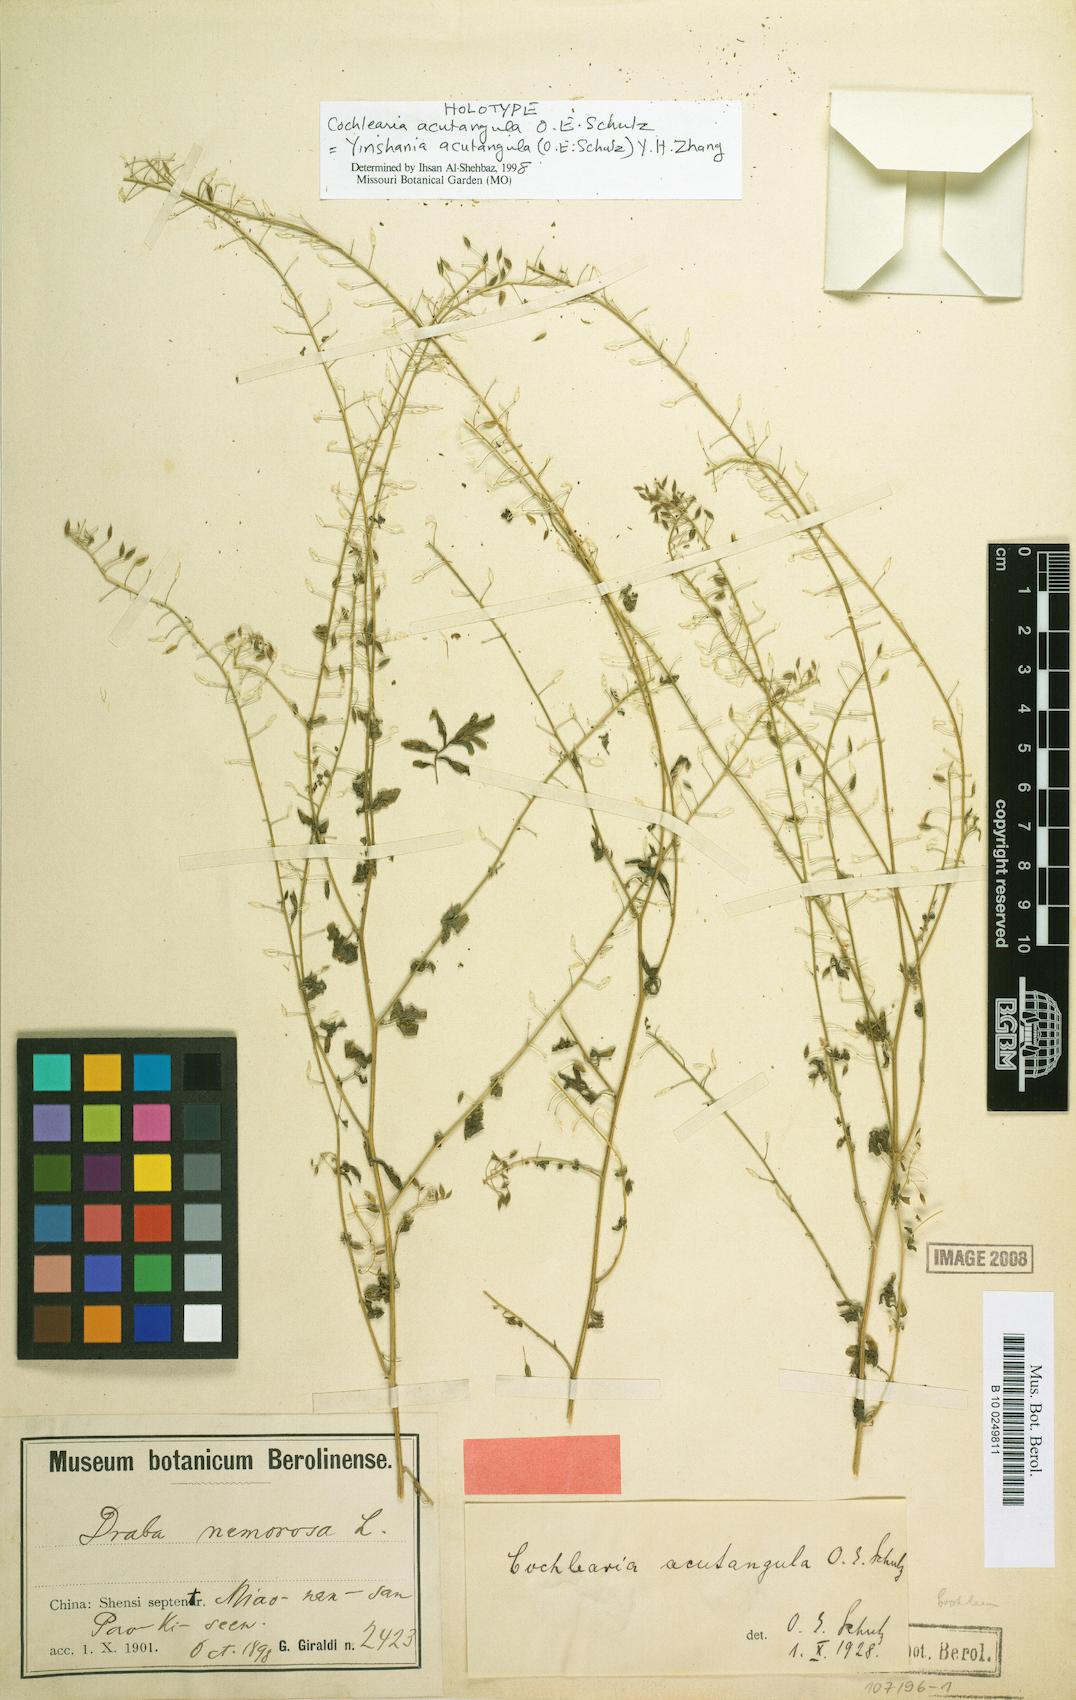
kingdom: Plantae
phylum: Tracheophyta
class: Magnoliopsida
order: Brassicales
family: Brassicaceae
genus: Yinshania
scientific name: Yinshania acutangula
